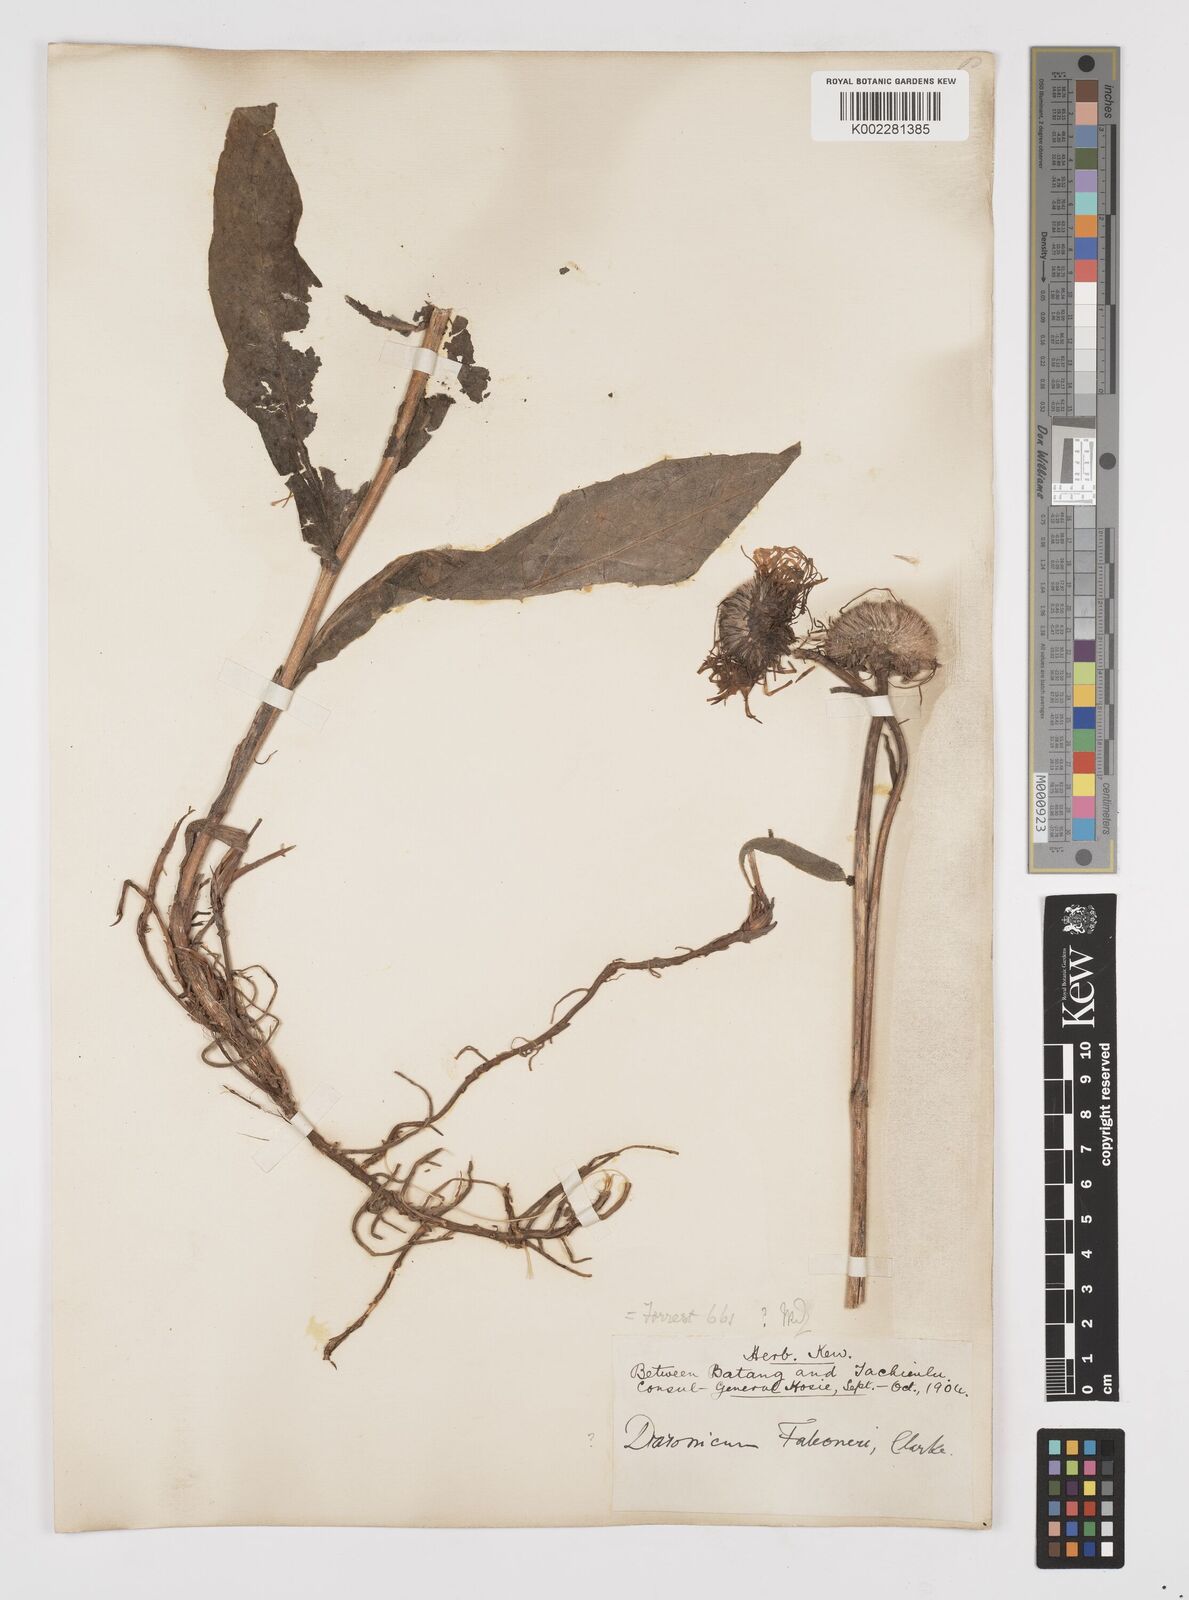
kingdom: Plantae
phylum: Tracheophyta
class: Magnoliopsida
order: Asterales
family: Asteraceae
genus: Tibetiodes
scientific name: Tibetiodes diplostephioides
